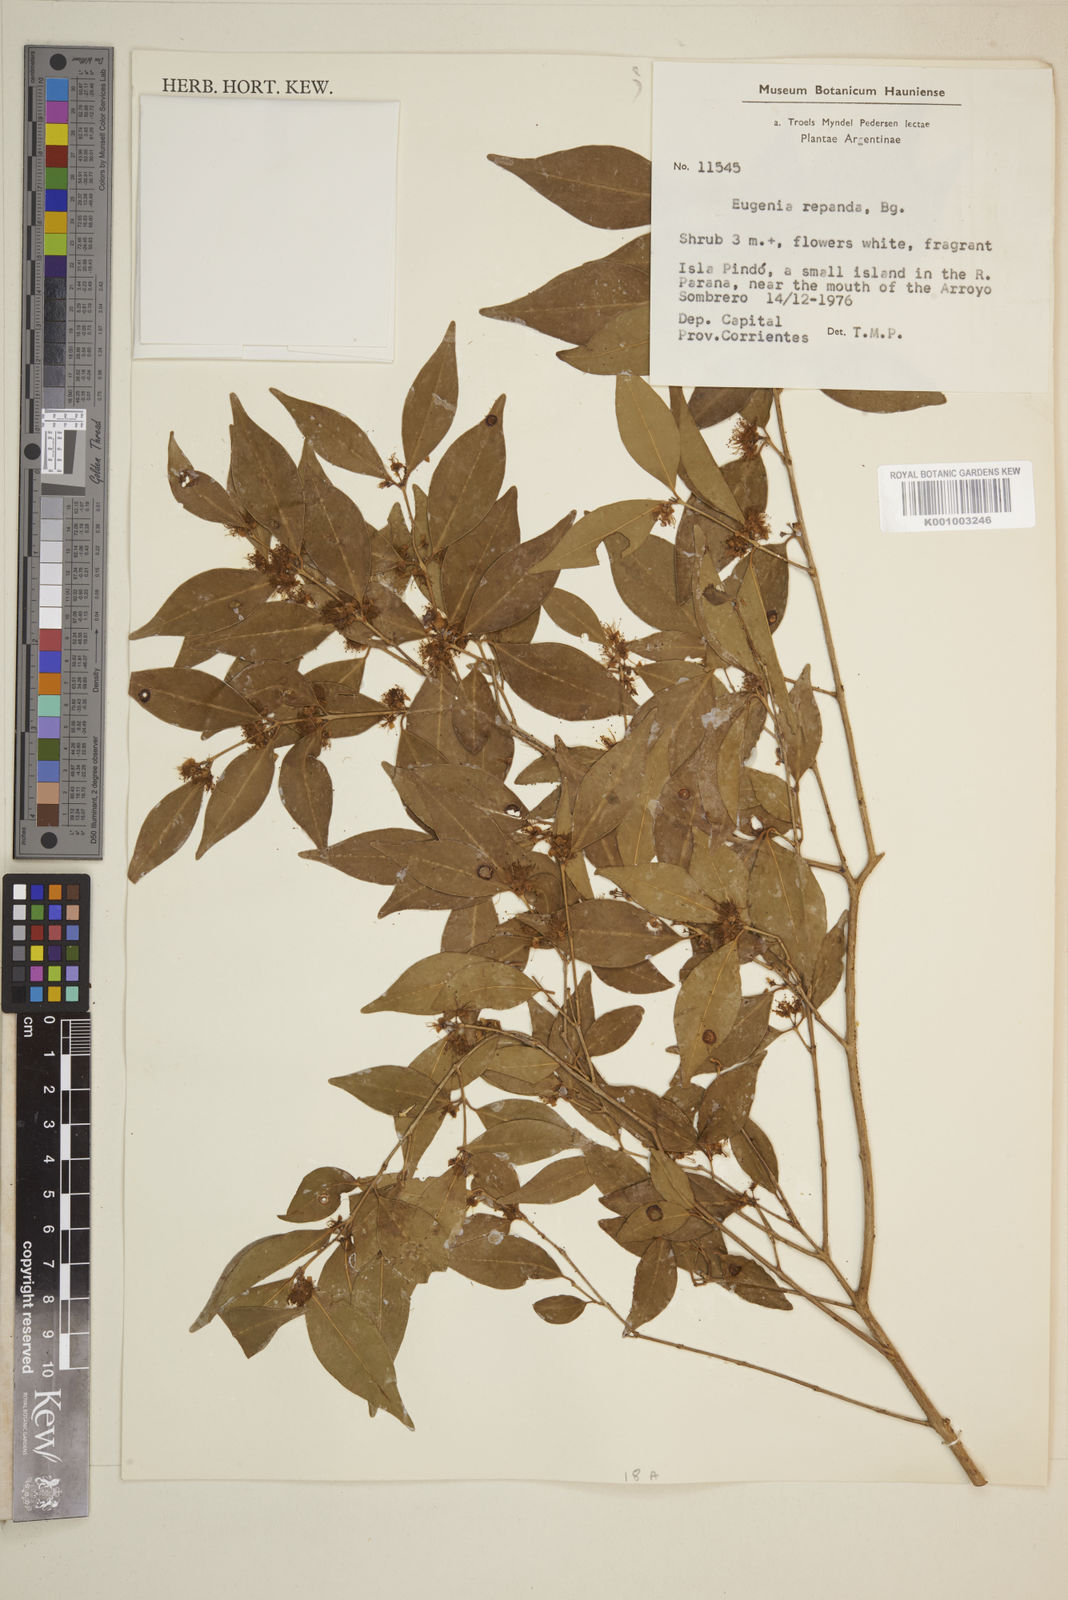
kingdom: Plantae
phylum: Tracheophyta
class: Magnoliopsida
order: Myrtales
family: Myrtaceae
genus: Eugenia
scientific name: Eugenia repanda
